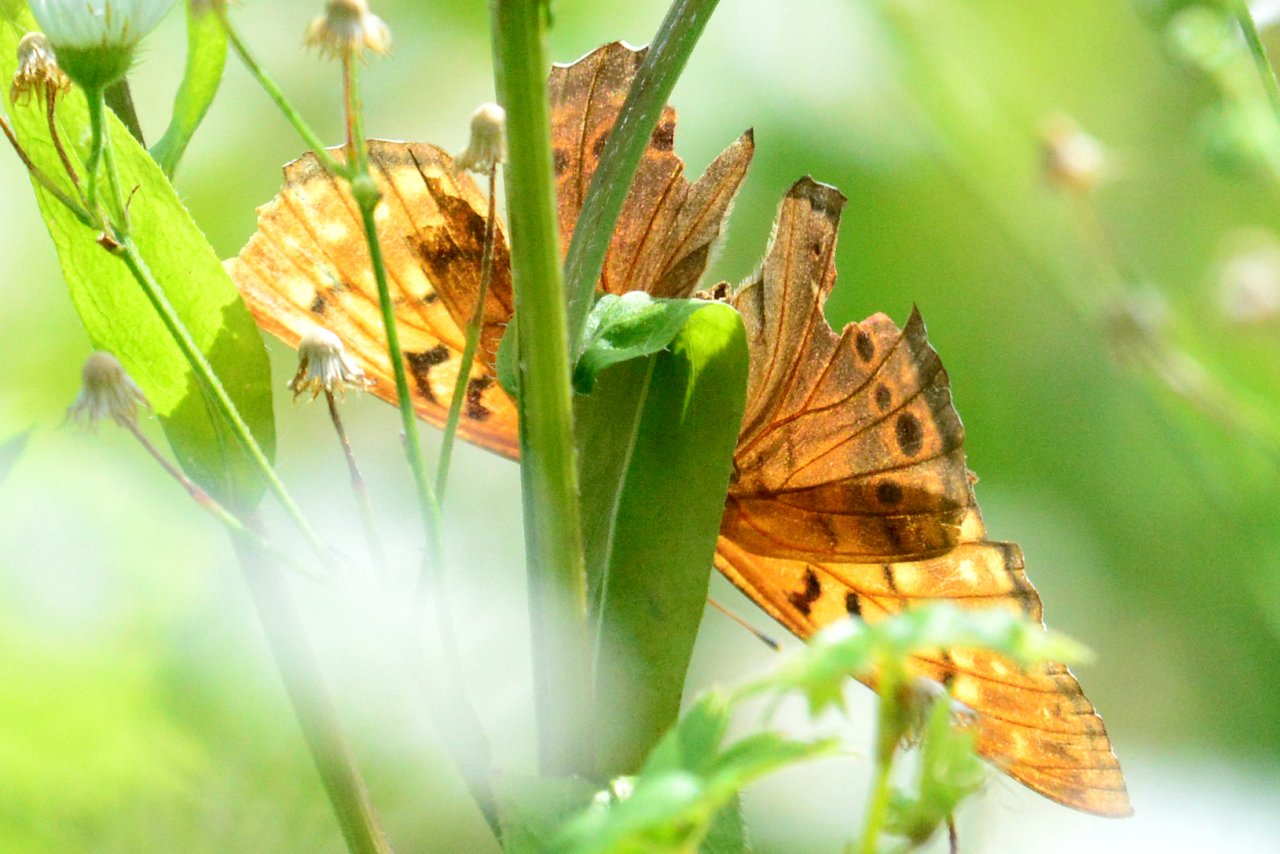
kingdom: Animalia
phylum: Arthropoda
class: Insecta
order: Lepidoptera
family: Nymphalidae
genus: Asterocampa
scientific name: Asterocampa clyton
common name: Tawny Emperor
